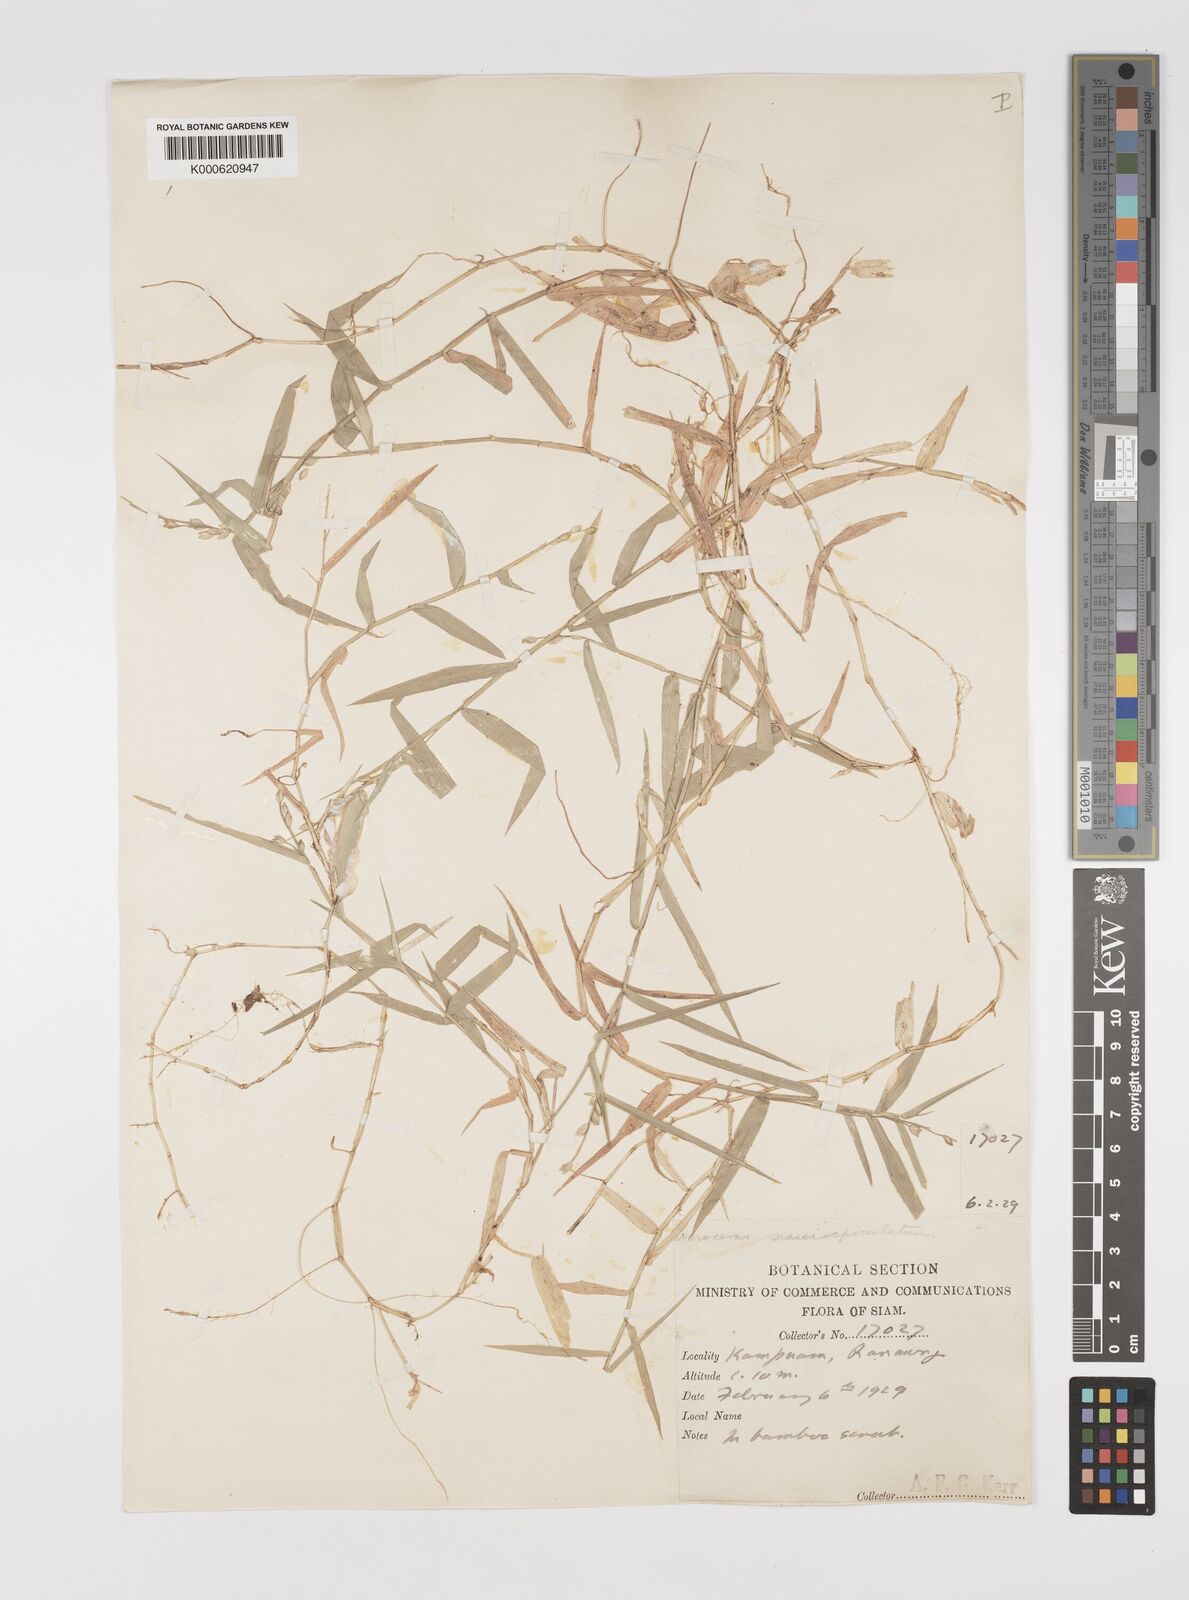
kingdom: Plantae
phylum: Tracheophyta
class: Liliopsida
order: Poales
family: Poaceae
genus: Acroceras
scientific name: Acroceras munroanum
